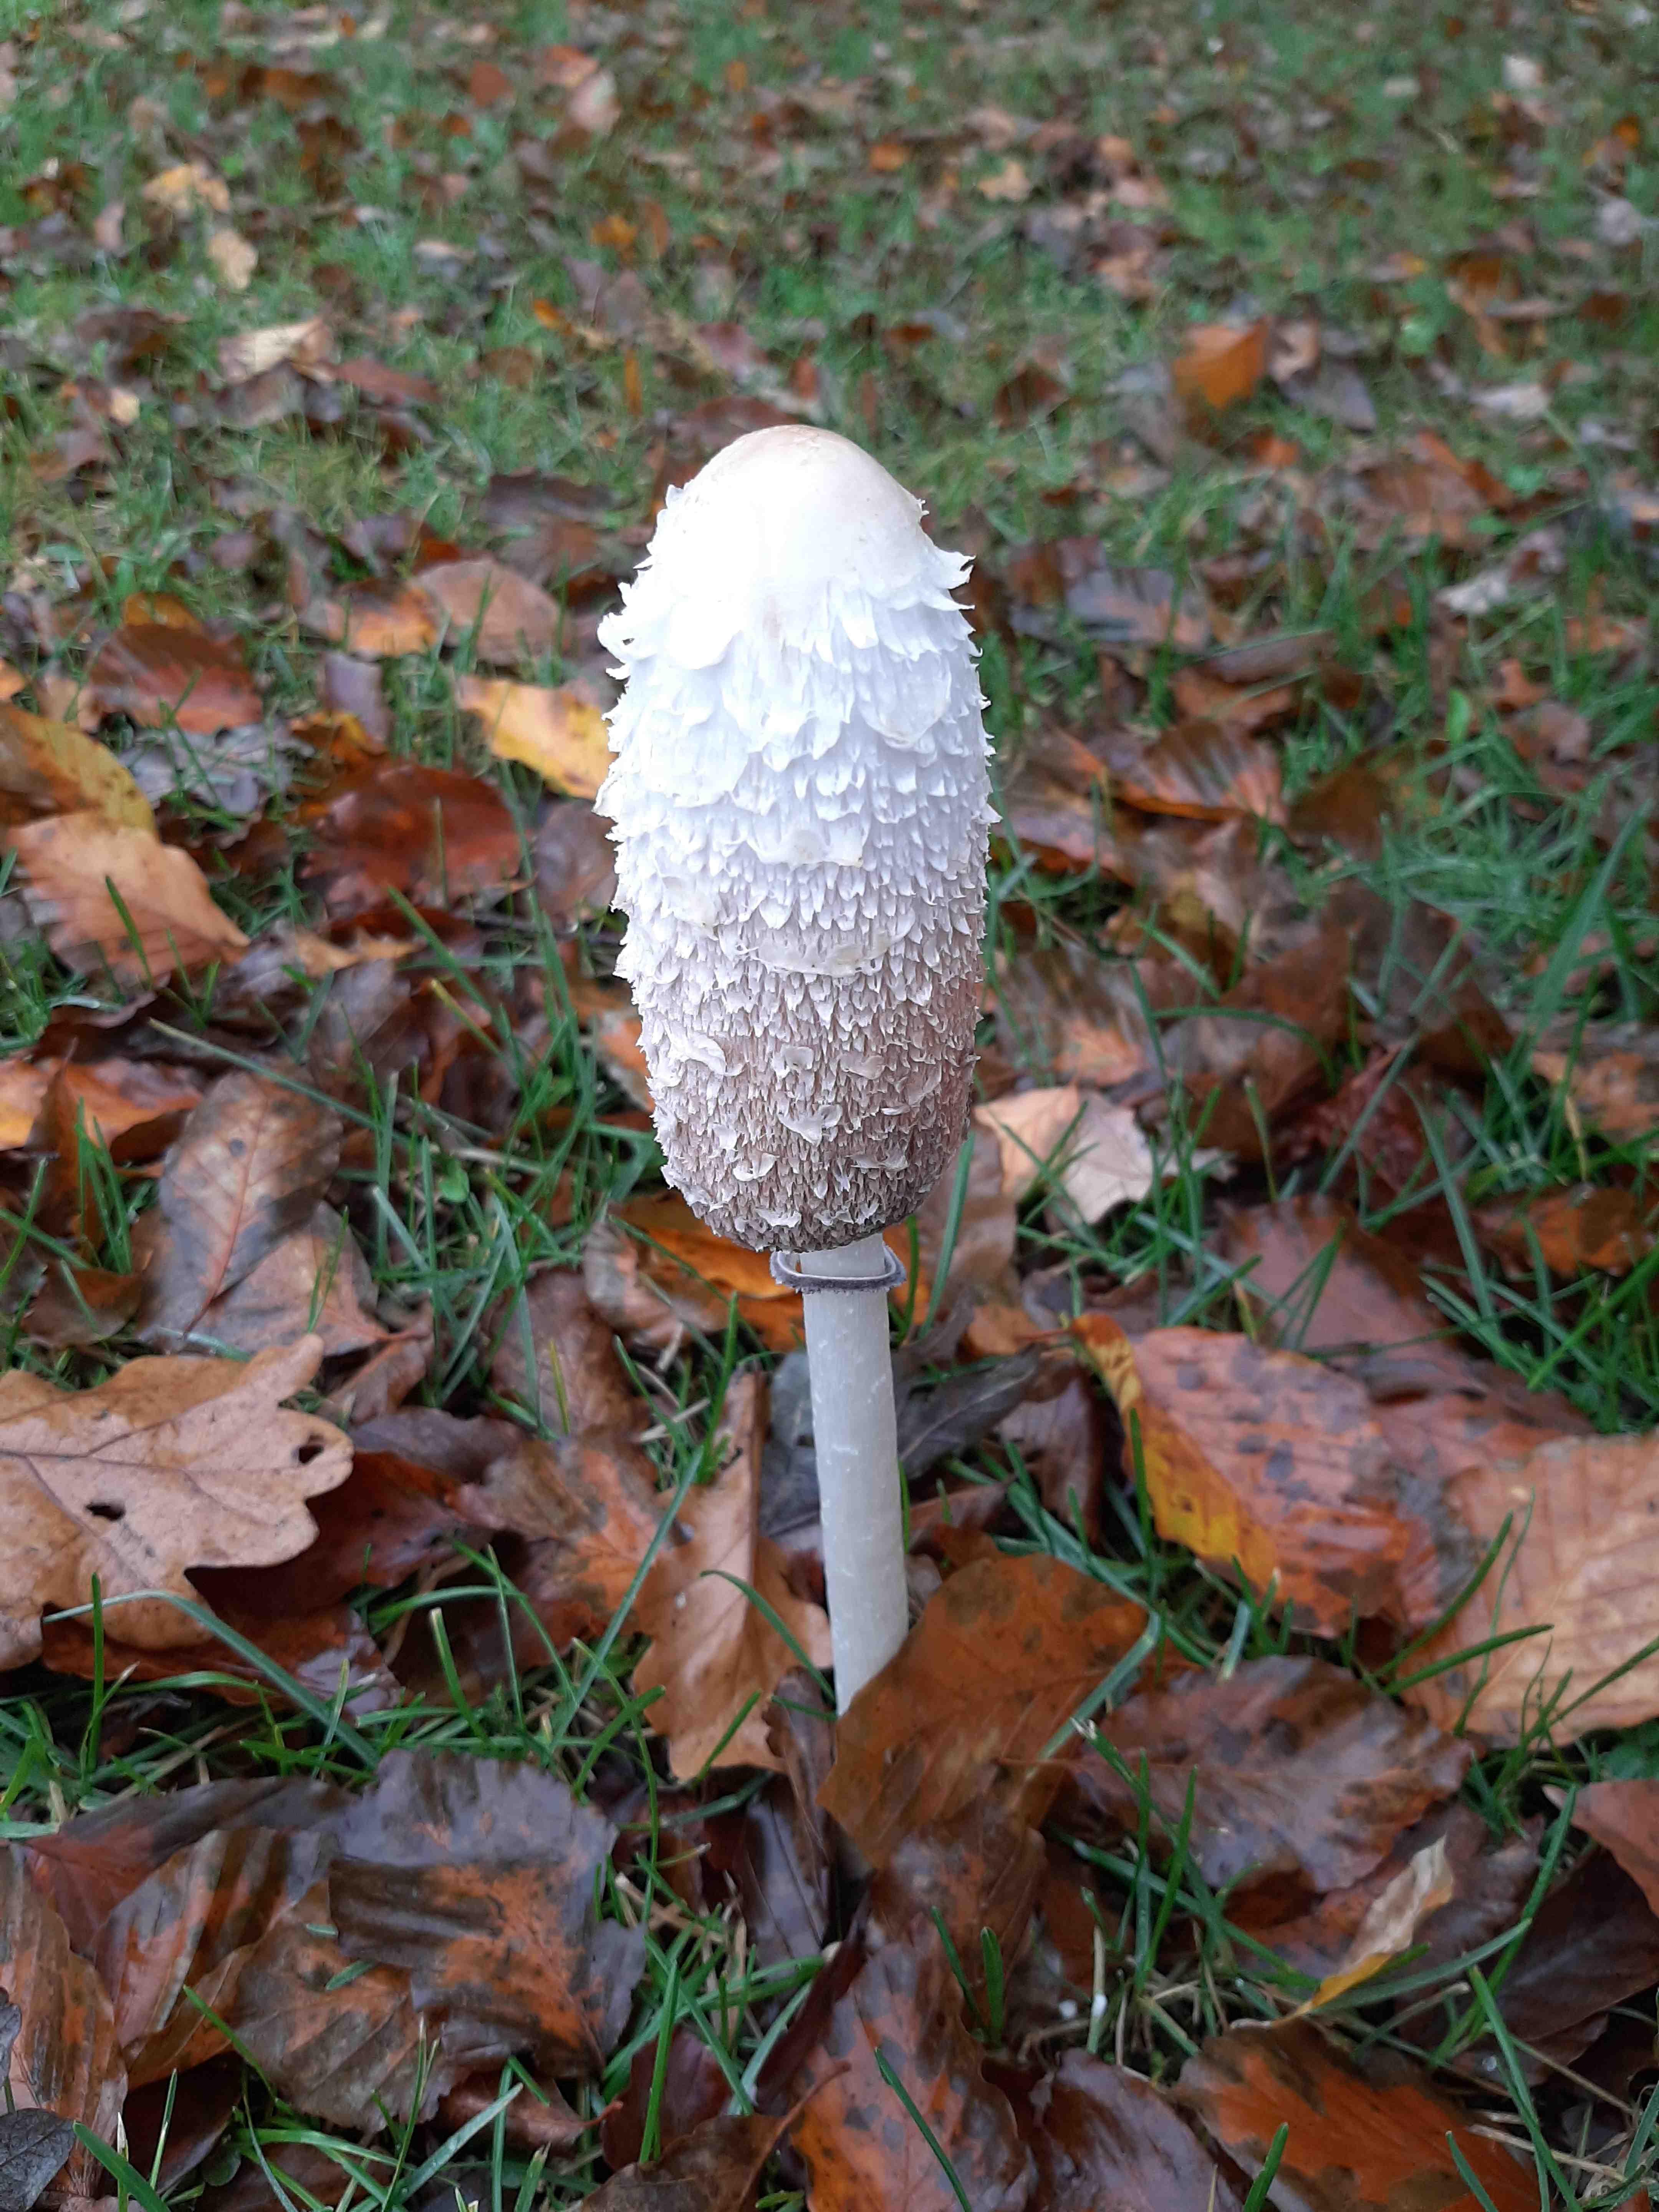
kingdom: Fungi
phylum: Basidiomycota
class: Agaricomycetes
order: Agaricales
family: Agaricaceae
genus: Coprinus
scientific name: Coprinus comatus
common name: stor parykhat
